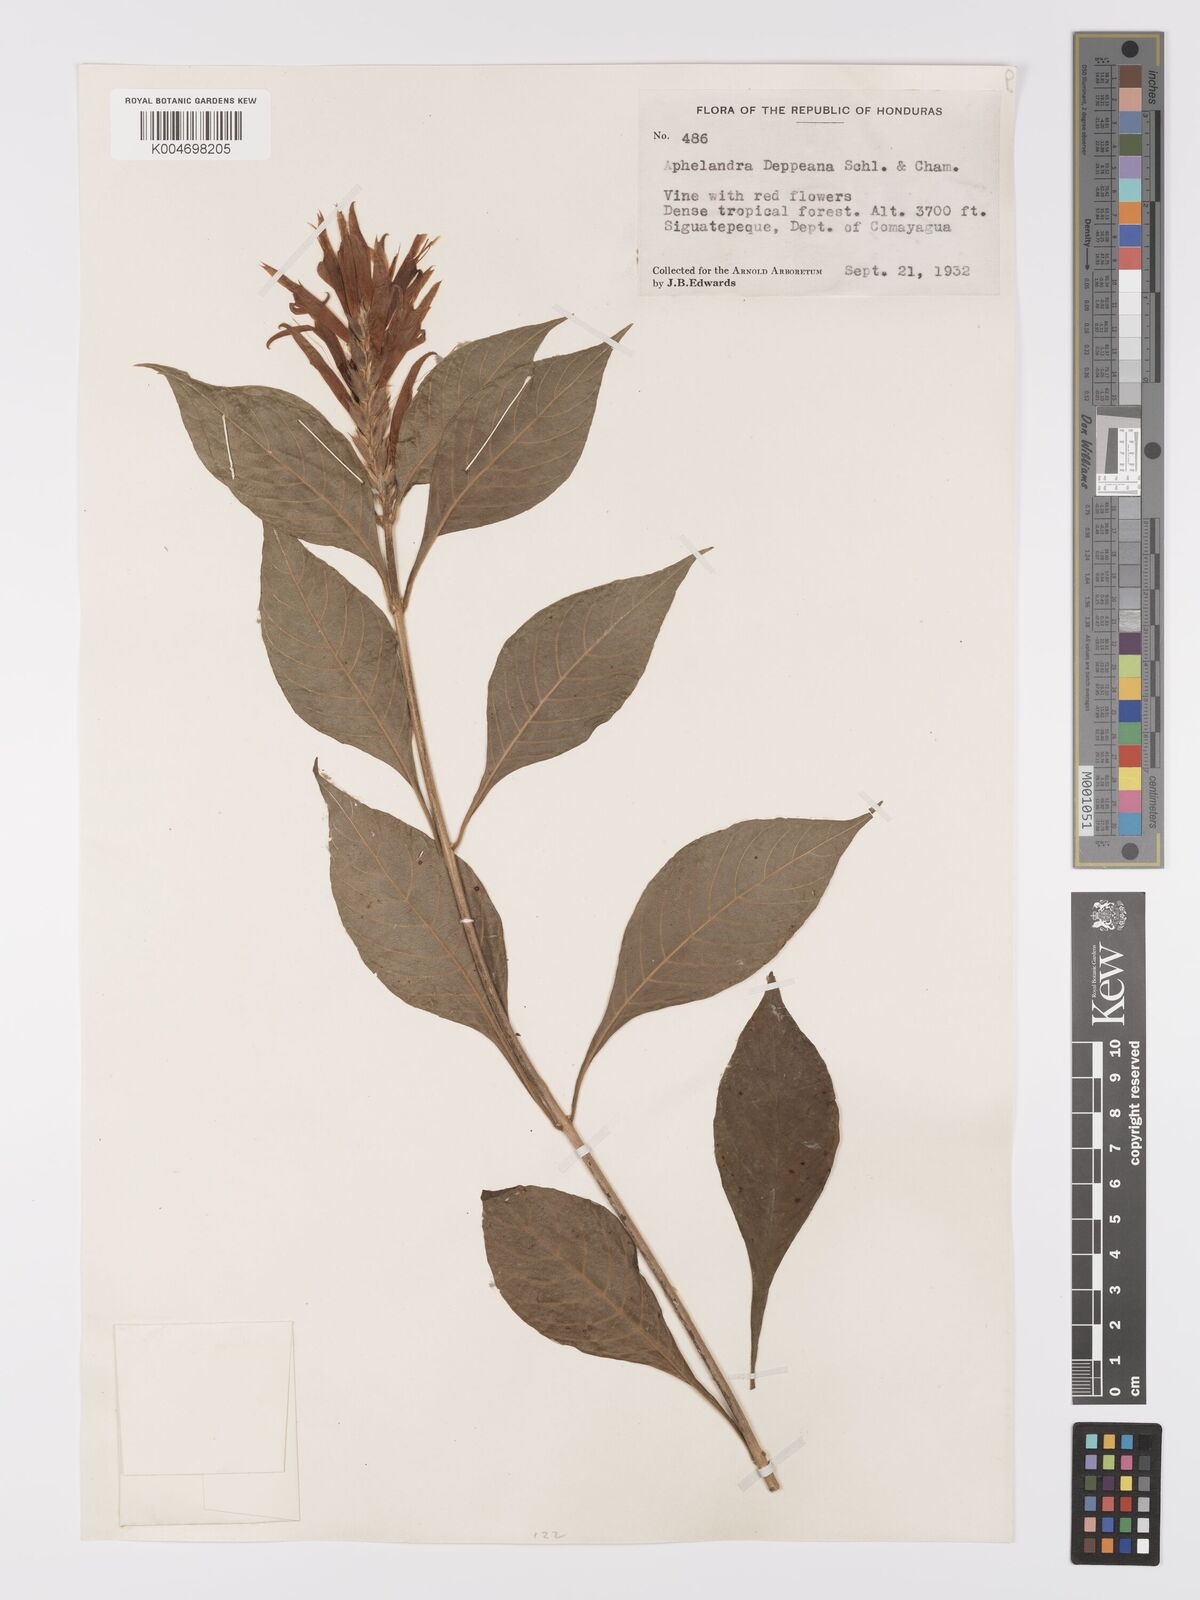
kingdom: Plantae
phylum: Tracheophyta
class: Magnoliopsida
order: Lamiales
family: Acanthaceae
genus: Aphelandra
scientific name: Aphelandra scabra
